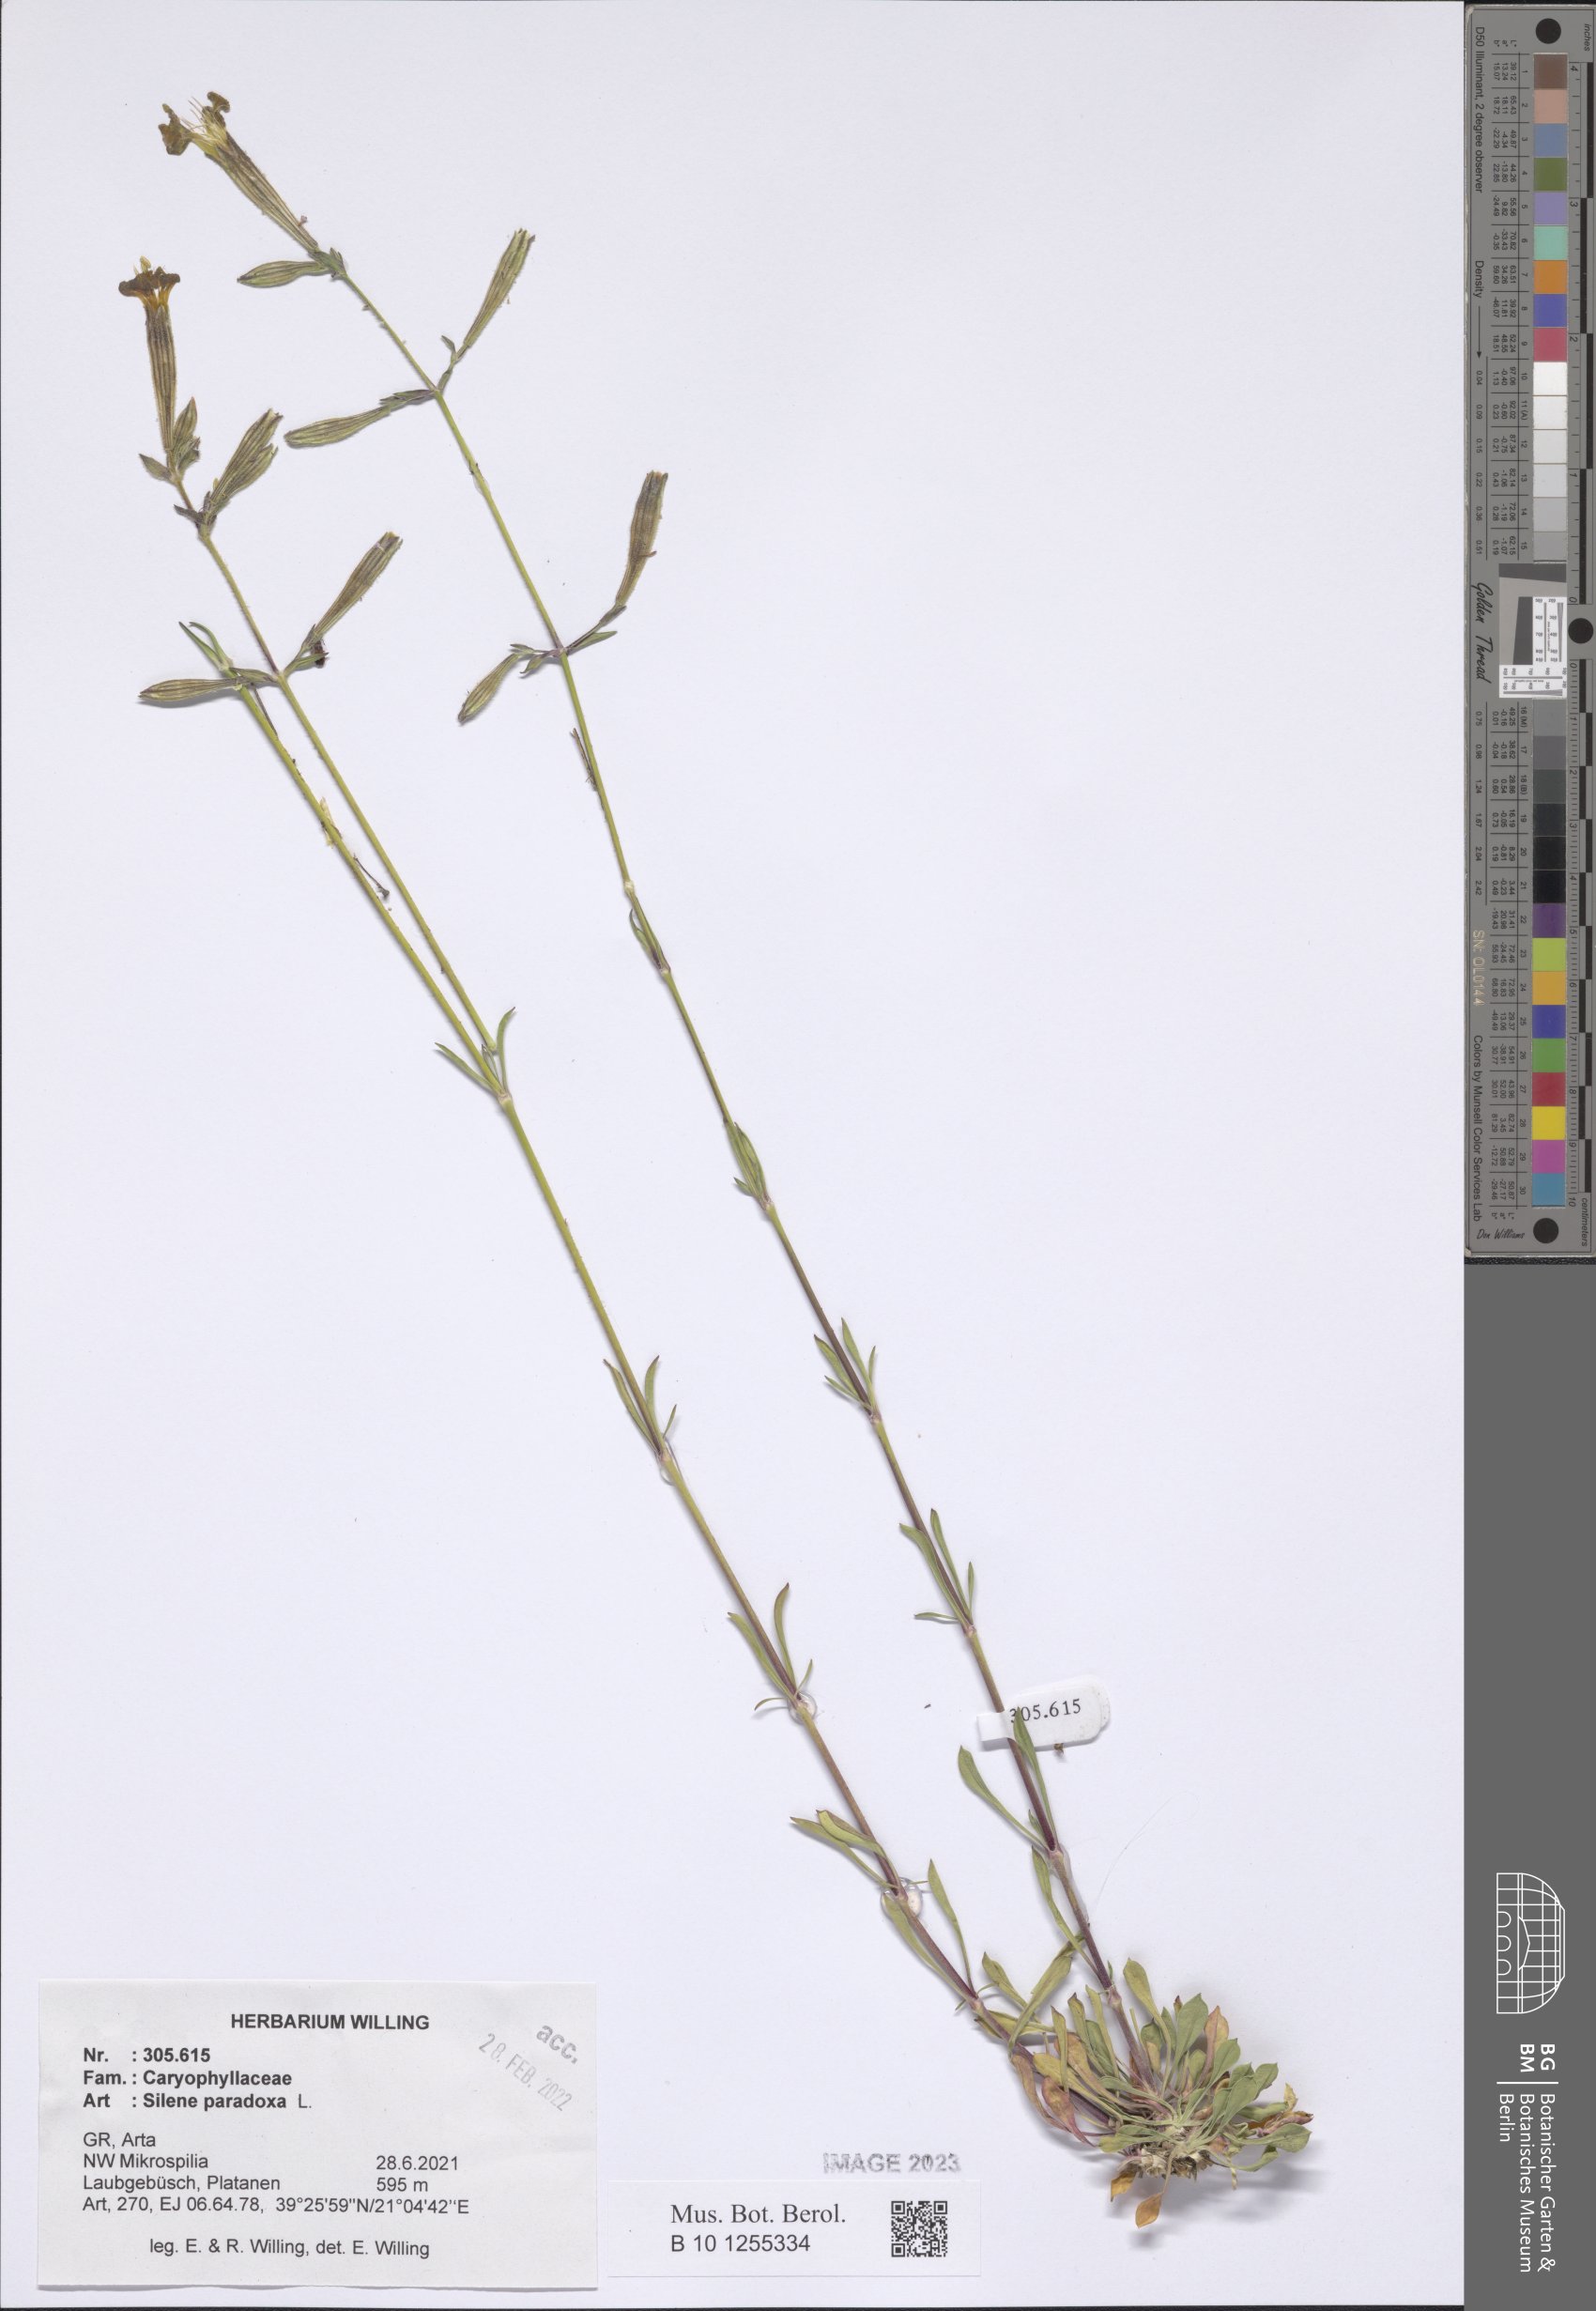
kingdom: Plantae
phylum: Tracheophyta
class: Magnoliopsida
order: Caryophyllales
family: Caryophyllaceae
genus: Silene
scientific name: Silene paradoxa
